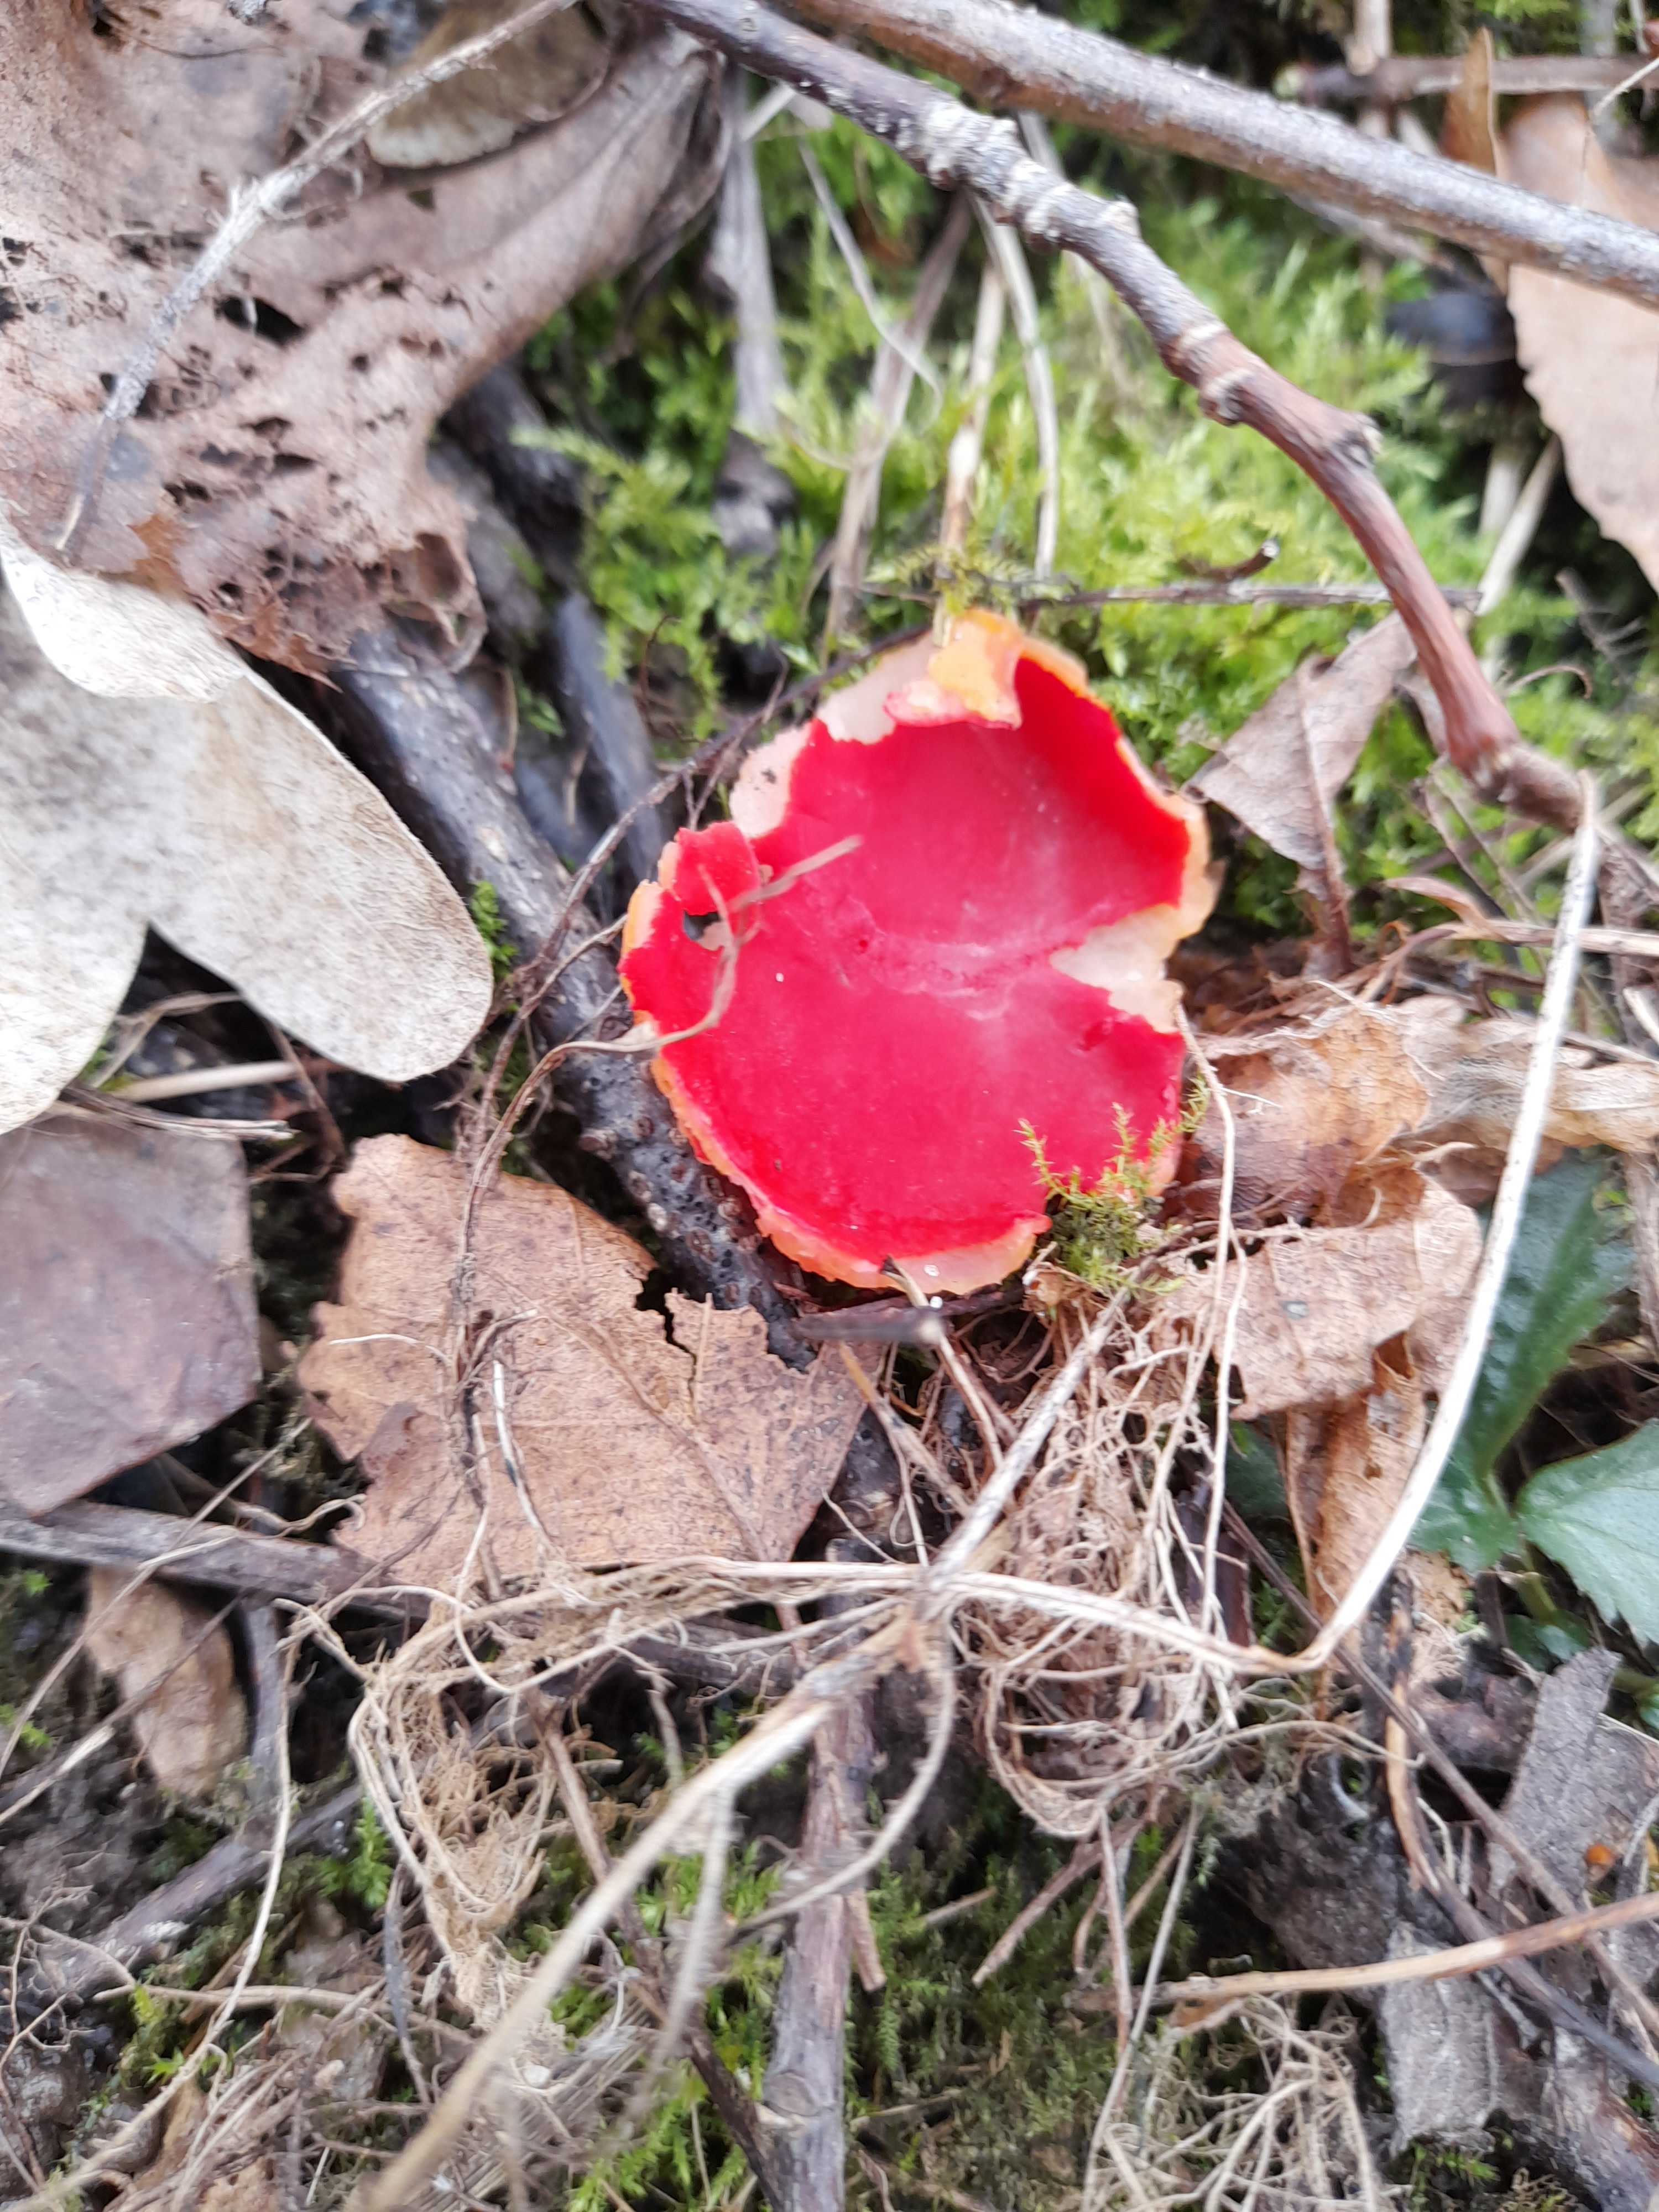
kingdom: Fungi
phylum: Ascomycota
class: Pezizomycetes
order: Pezizales
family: Sarcoscyphaceae
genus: Sarcoscypha
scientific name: Sarcoscypha austriaca
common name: krølhåret pragtbæger
